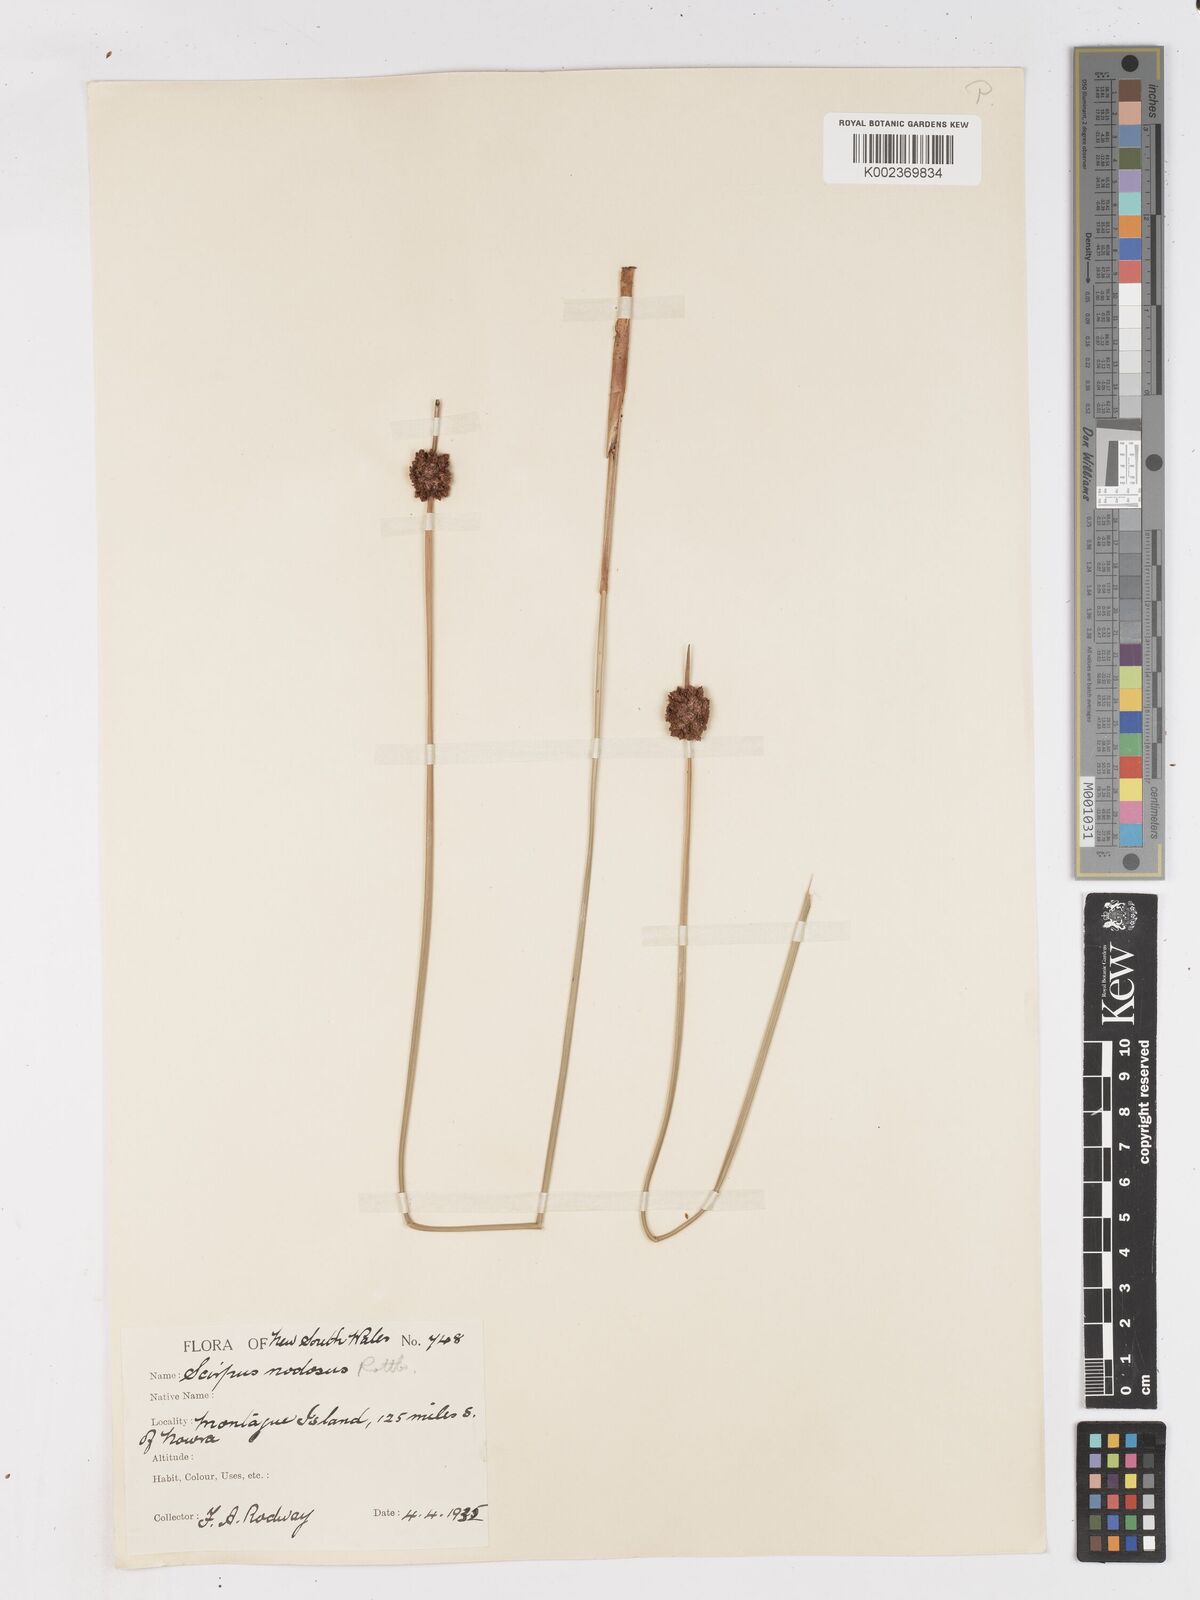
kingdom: Plantae
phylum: Tracheophyta
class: Liliopsida
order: Poales
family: Cyperaceae
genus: Ficinia
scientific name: Ficinia nodosa
